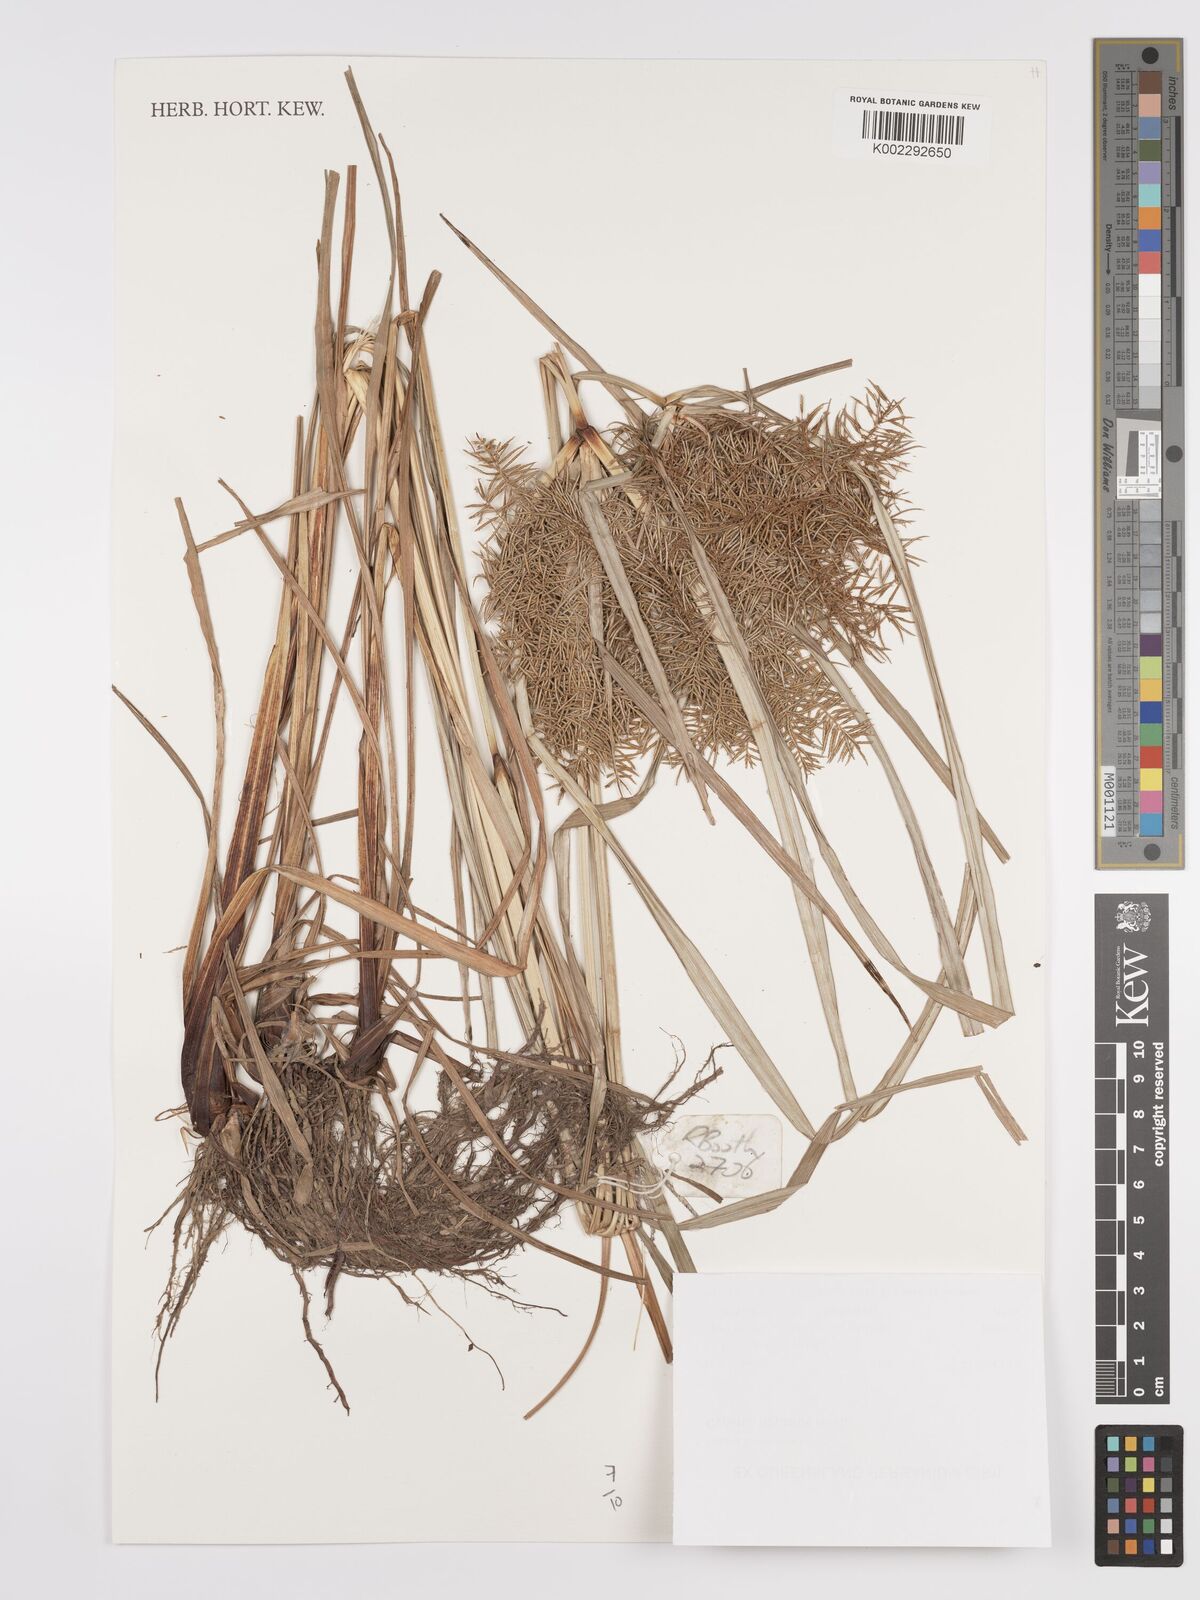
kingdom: Plantae
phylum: Tracheophyta
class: Liliopsida
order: Poales
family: Cyperaceae
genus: Cyperus
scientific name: Cyperus digitatus
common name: Finger flatsedge
